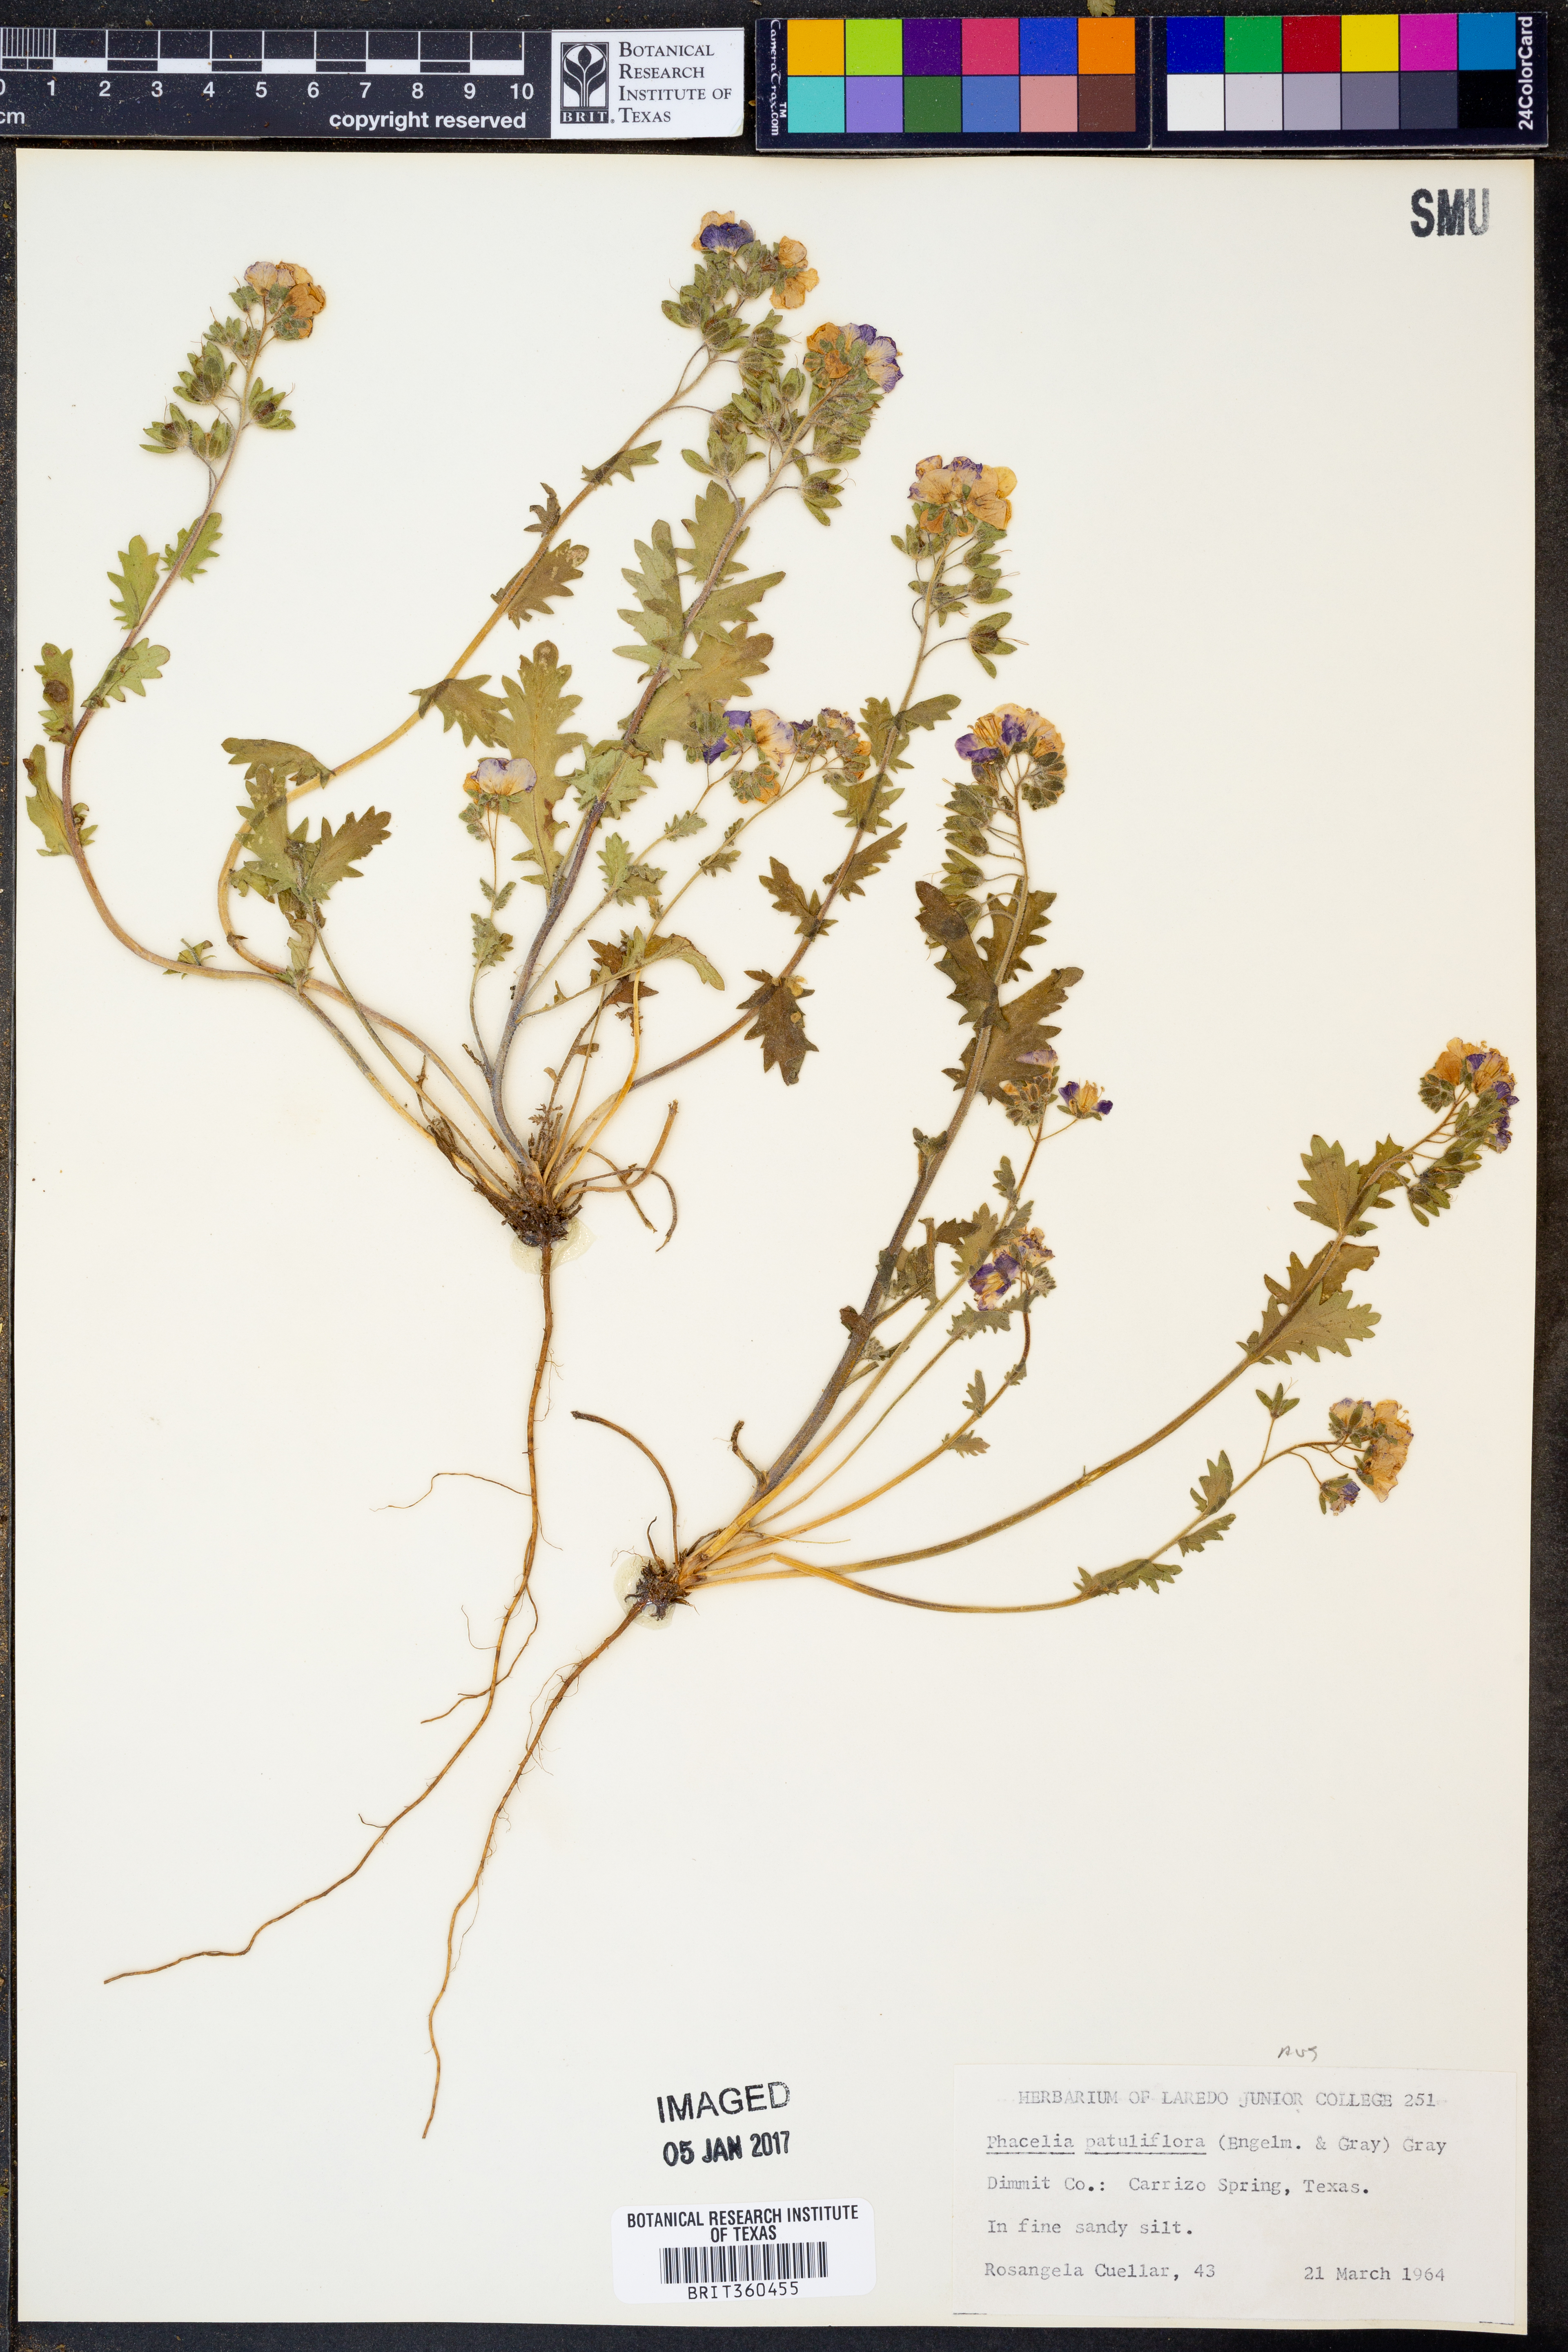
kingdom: Plantae
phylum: Tracheophyta
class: Magnoliopsida
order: Boraginales
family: Hydrophyllaceae
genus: Phacelia
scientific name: Phacelia patuliflora
